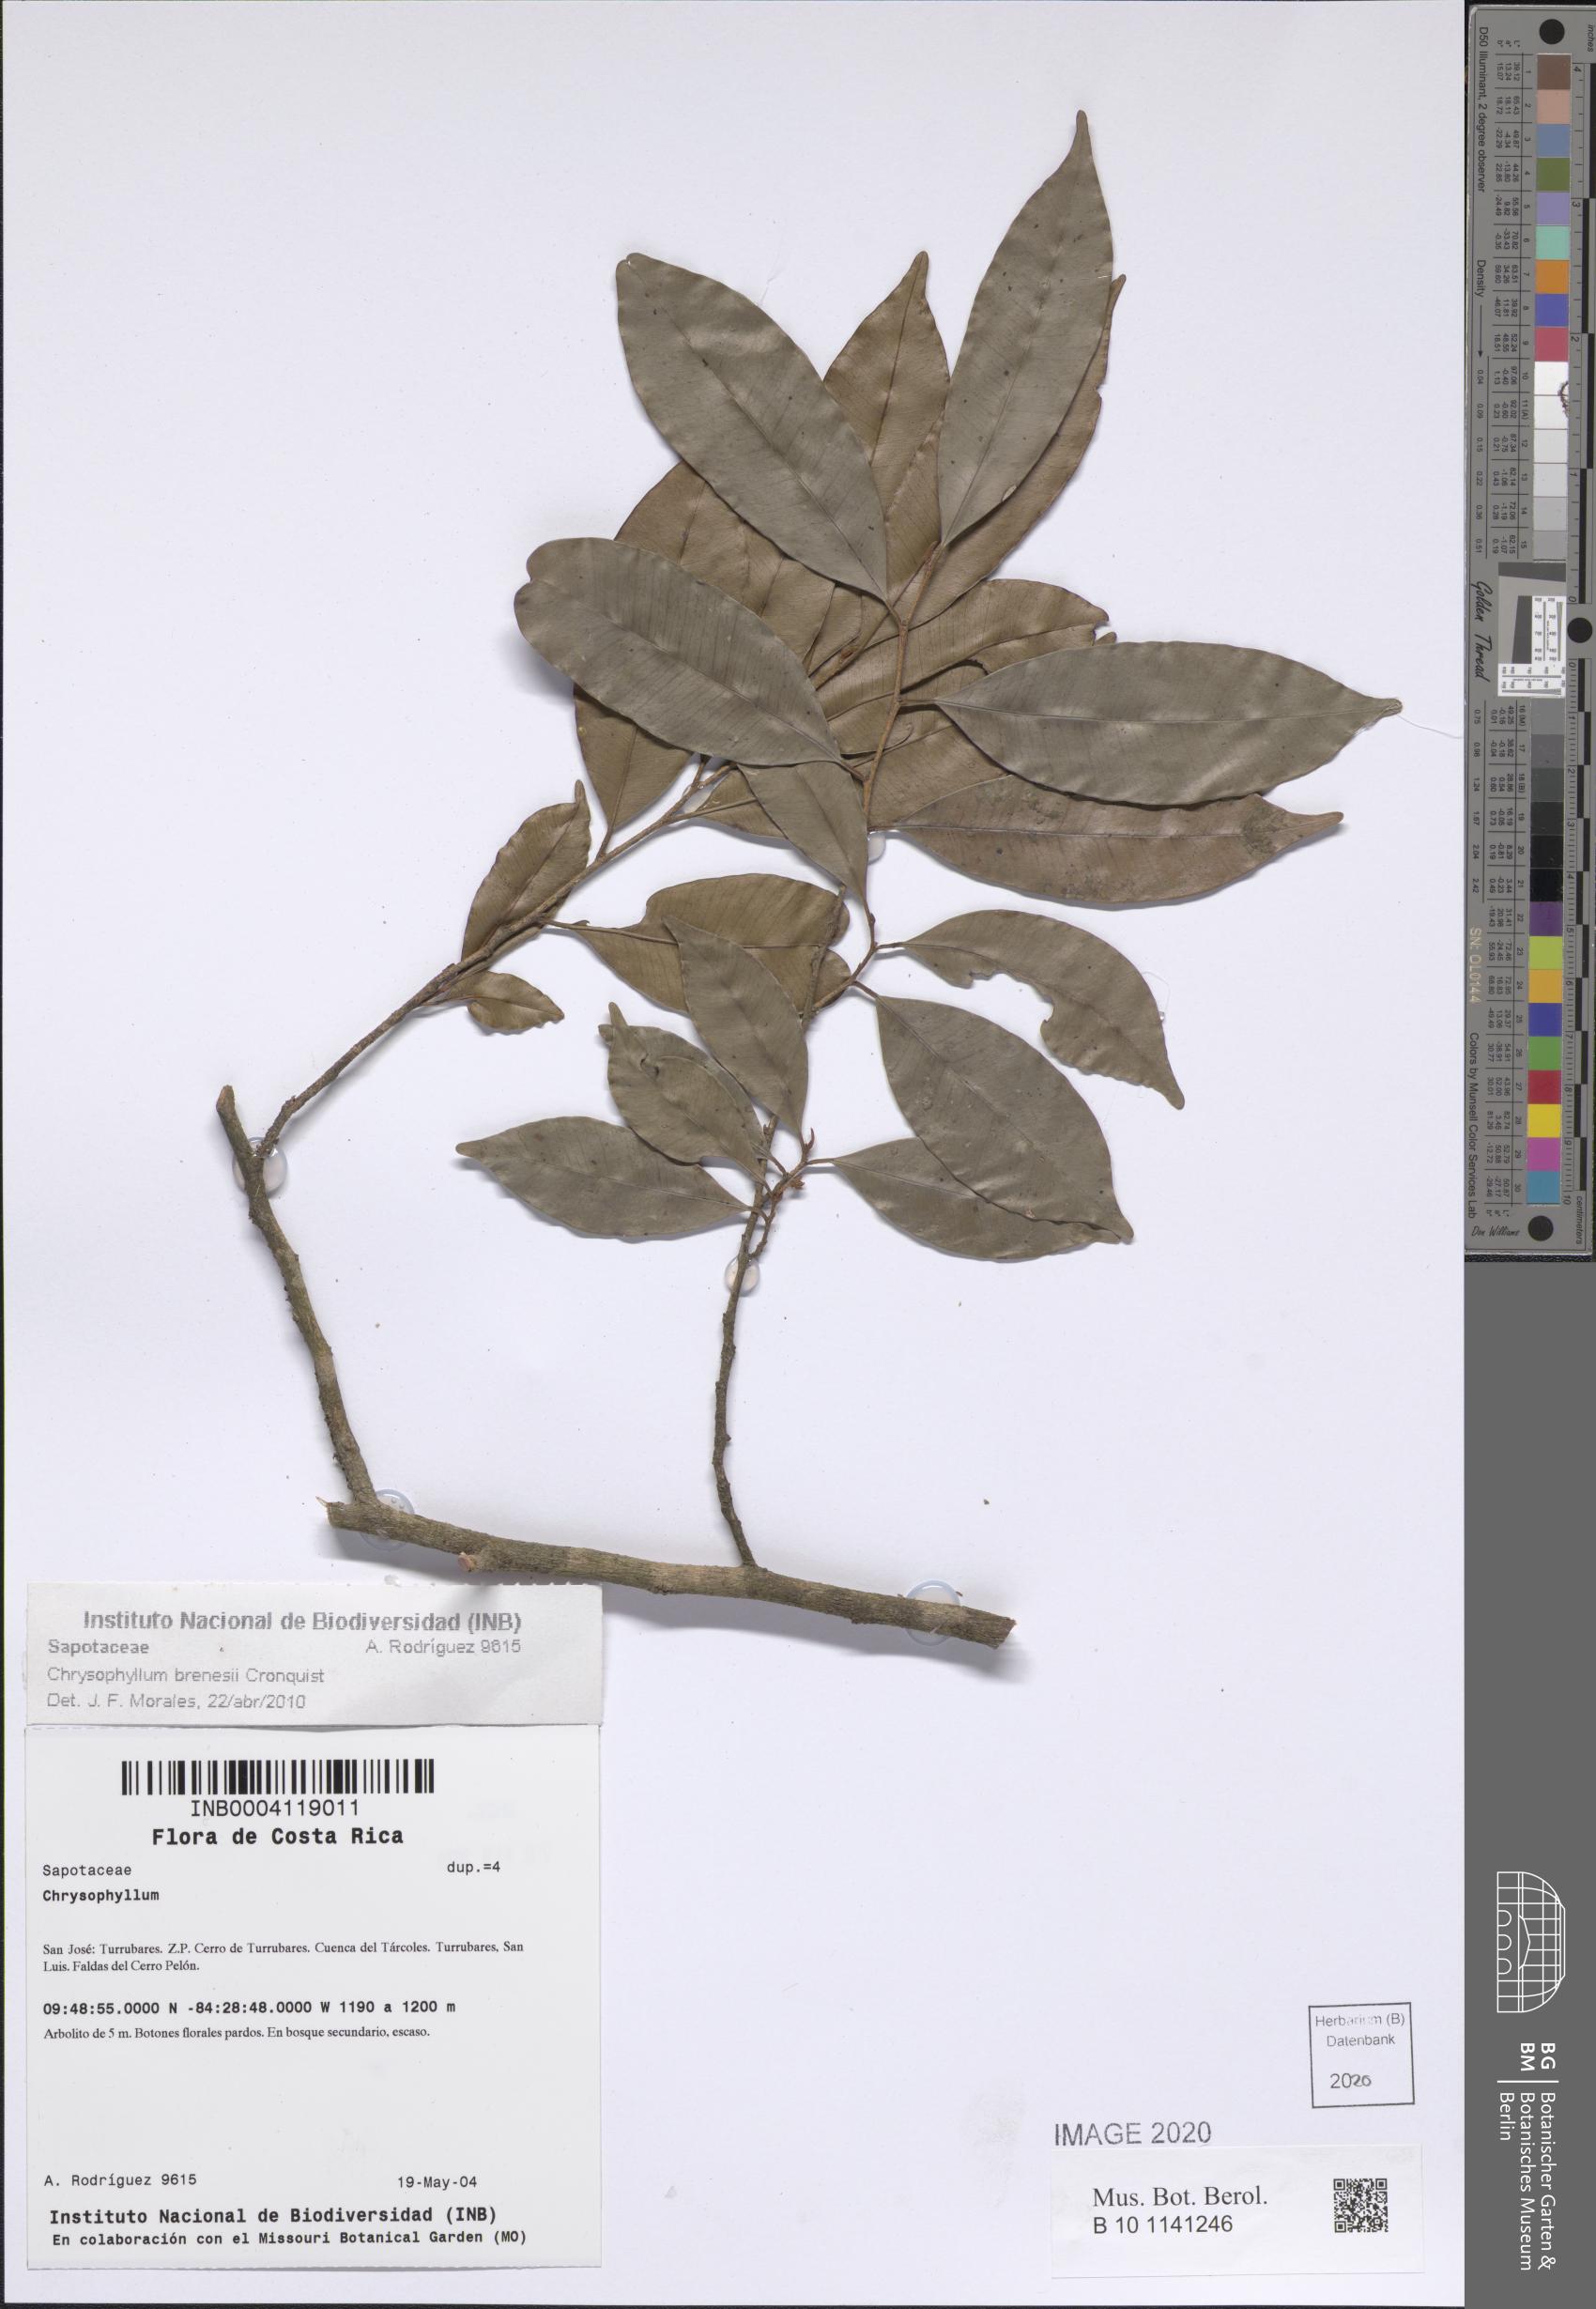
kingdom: Plantae
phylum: Tracheophyta
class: Magnoliopsida
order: Ericales
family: Sapotaceae
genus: Chrysophyllum
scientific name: Chrysophyllum brenesii
